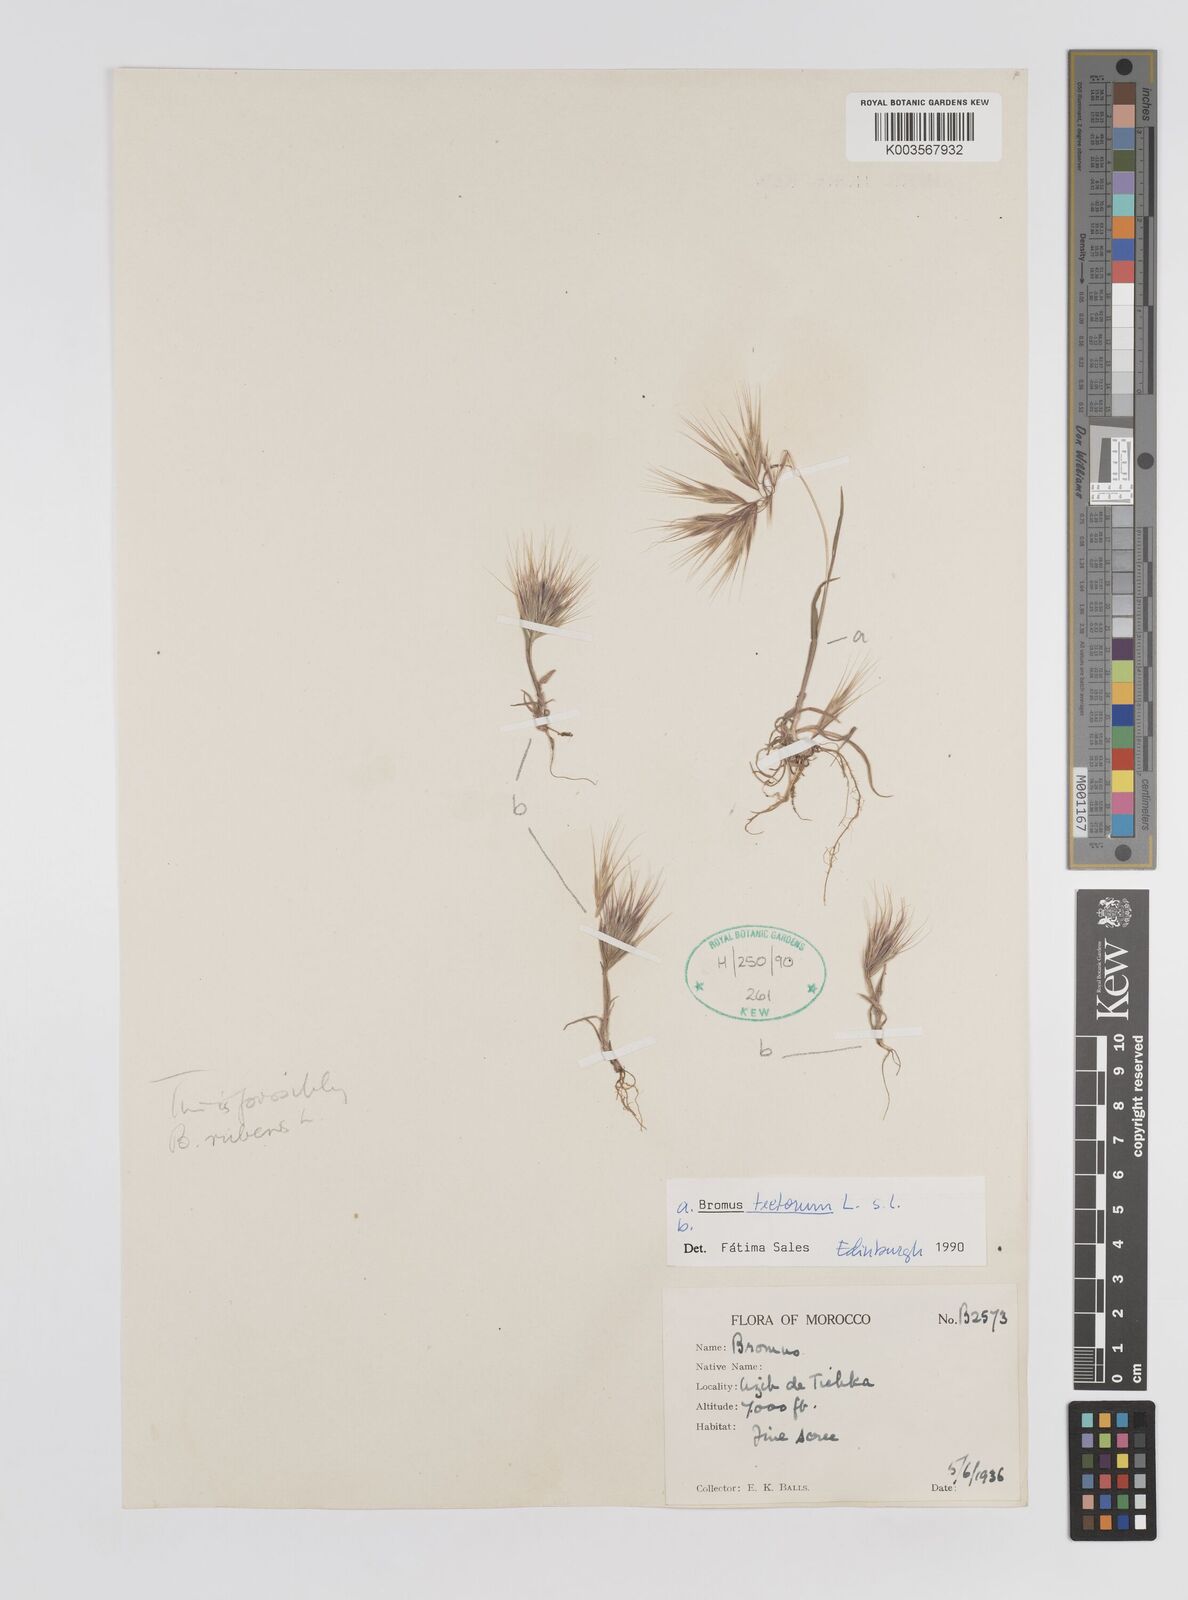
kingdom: Plantae
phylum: Tracheophyta
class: Liliopsida
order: Poales
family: Poaceae
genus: Bromus
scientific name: Bromus tectorum
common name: Cheatgrass
